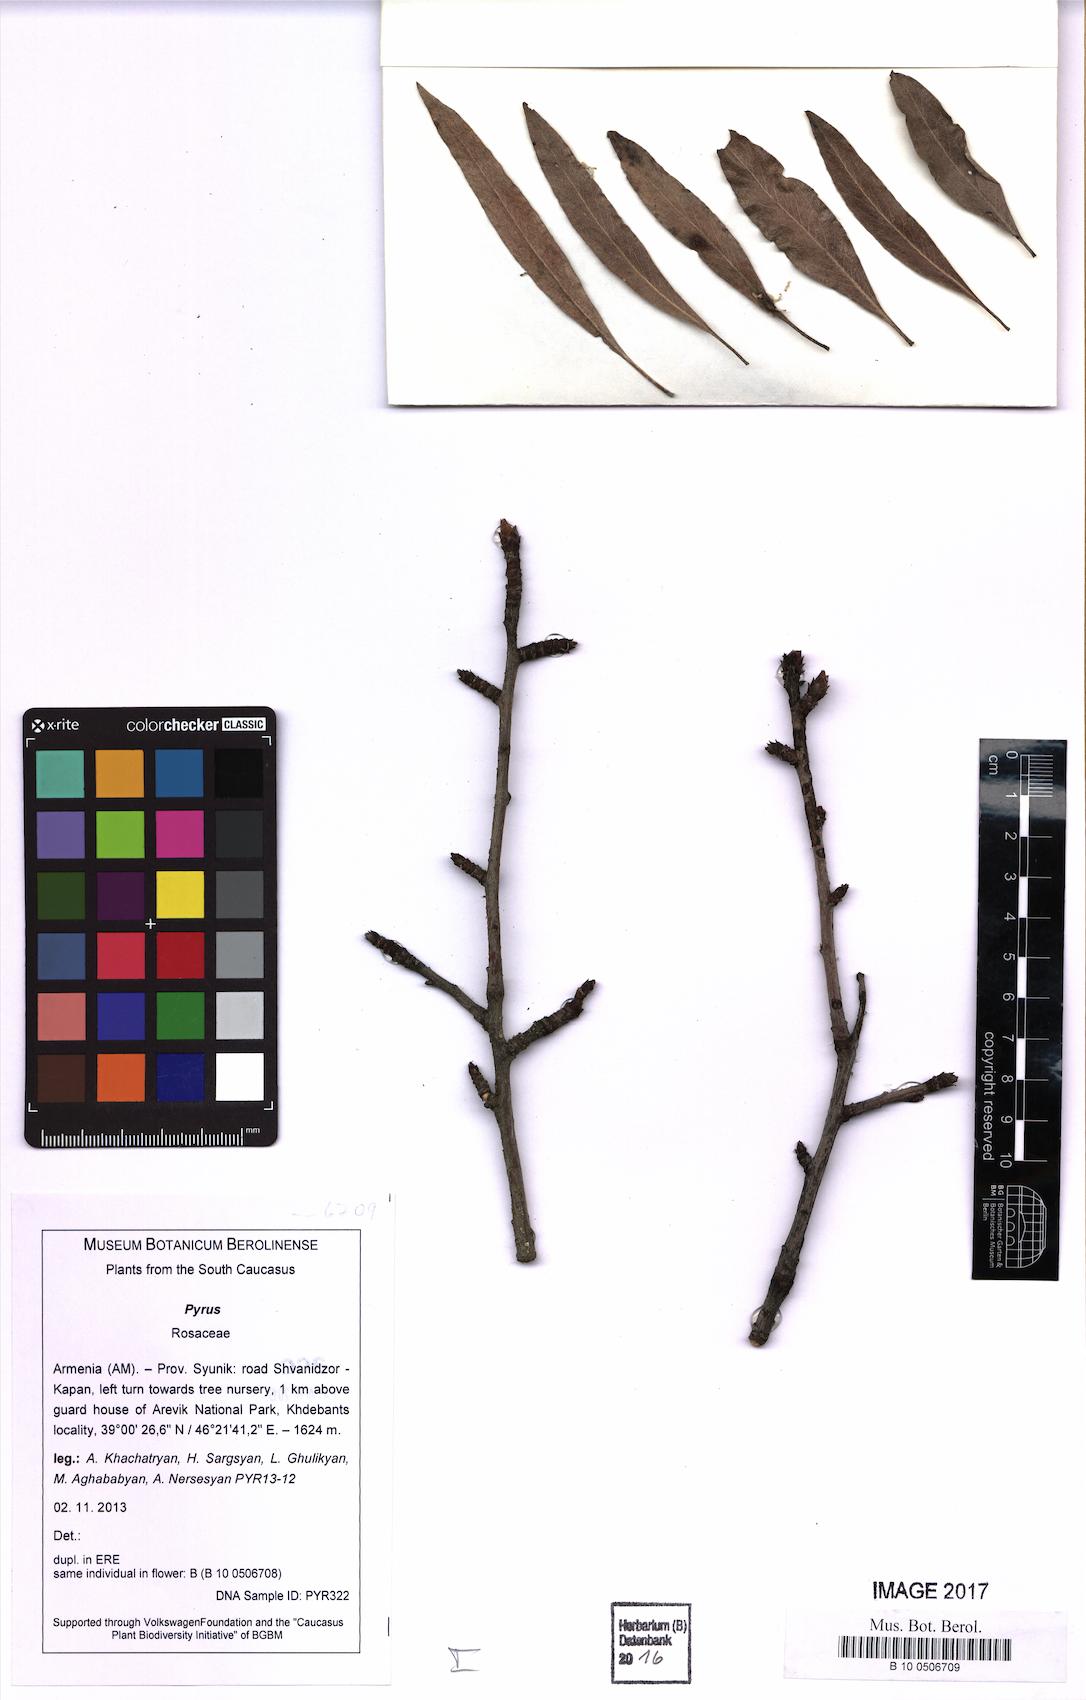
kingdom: Plantae
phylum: Tracheophyta
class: Magnoliopsida
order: Rosales
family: Rosaceae
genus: Pyrus
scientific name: Pyrus
